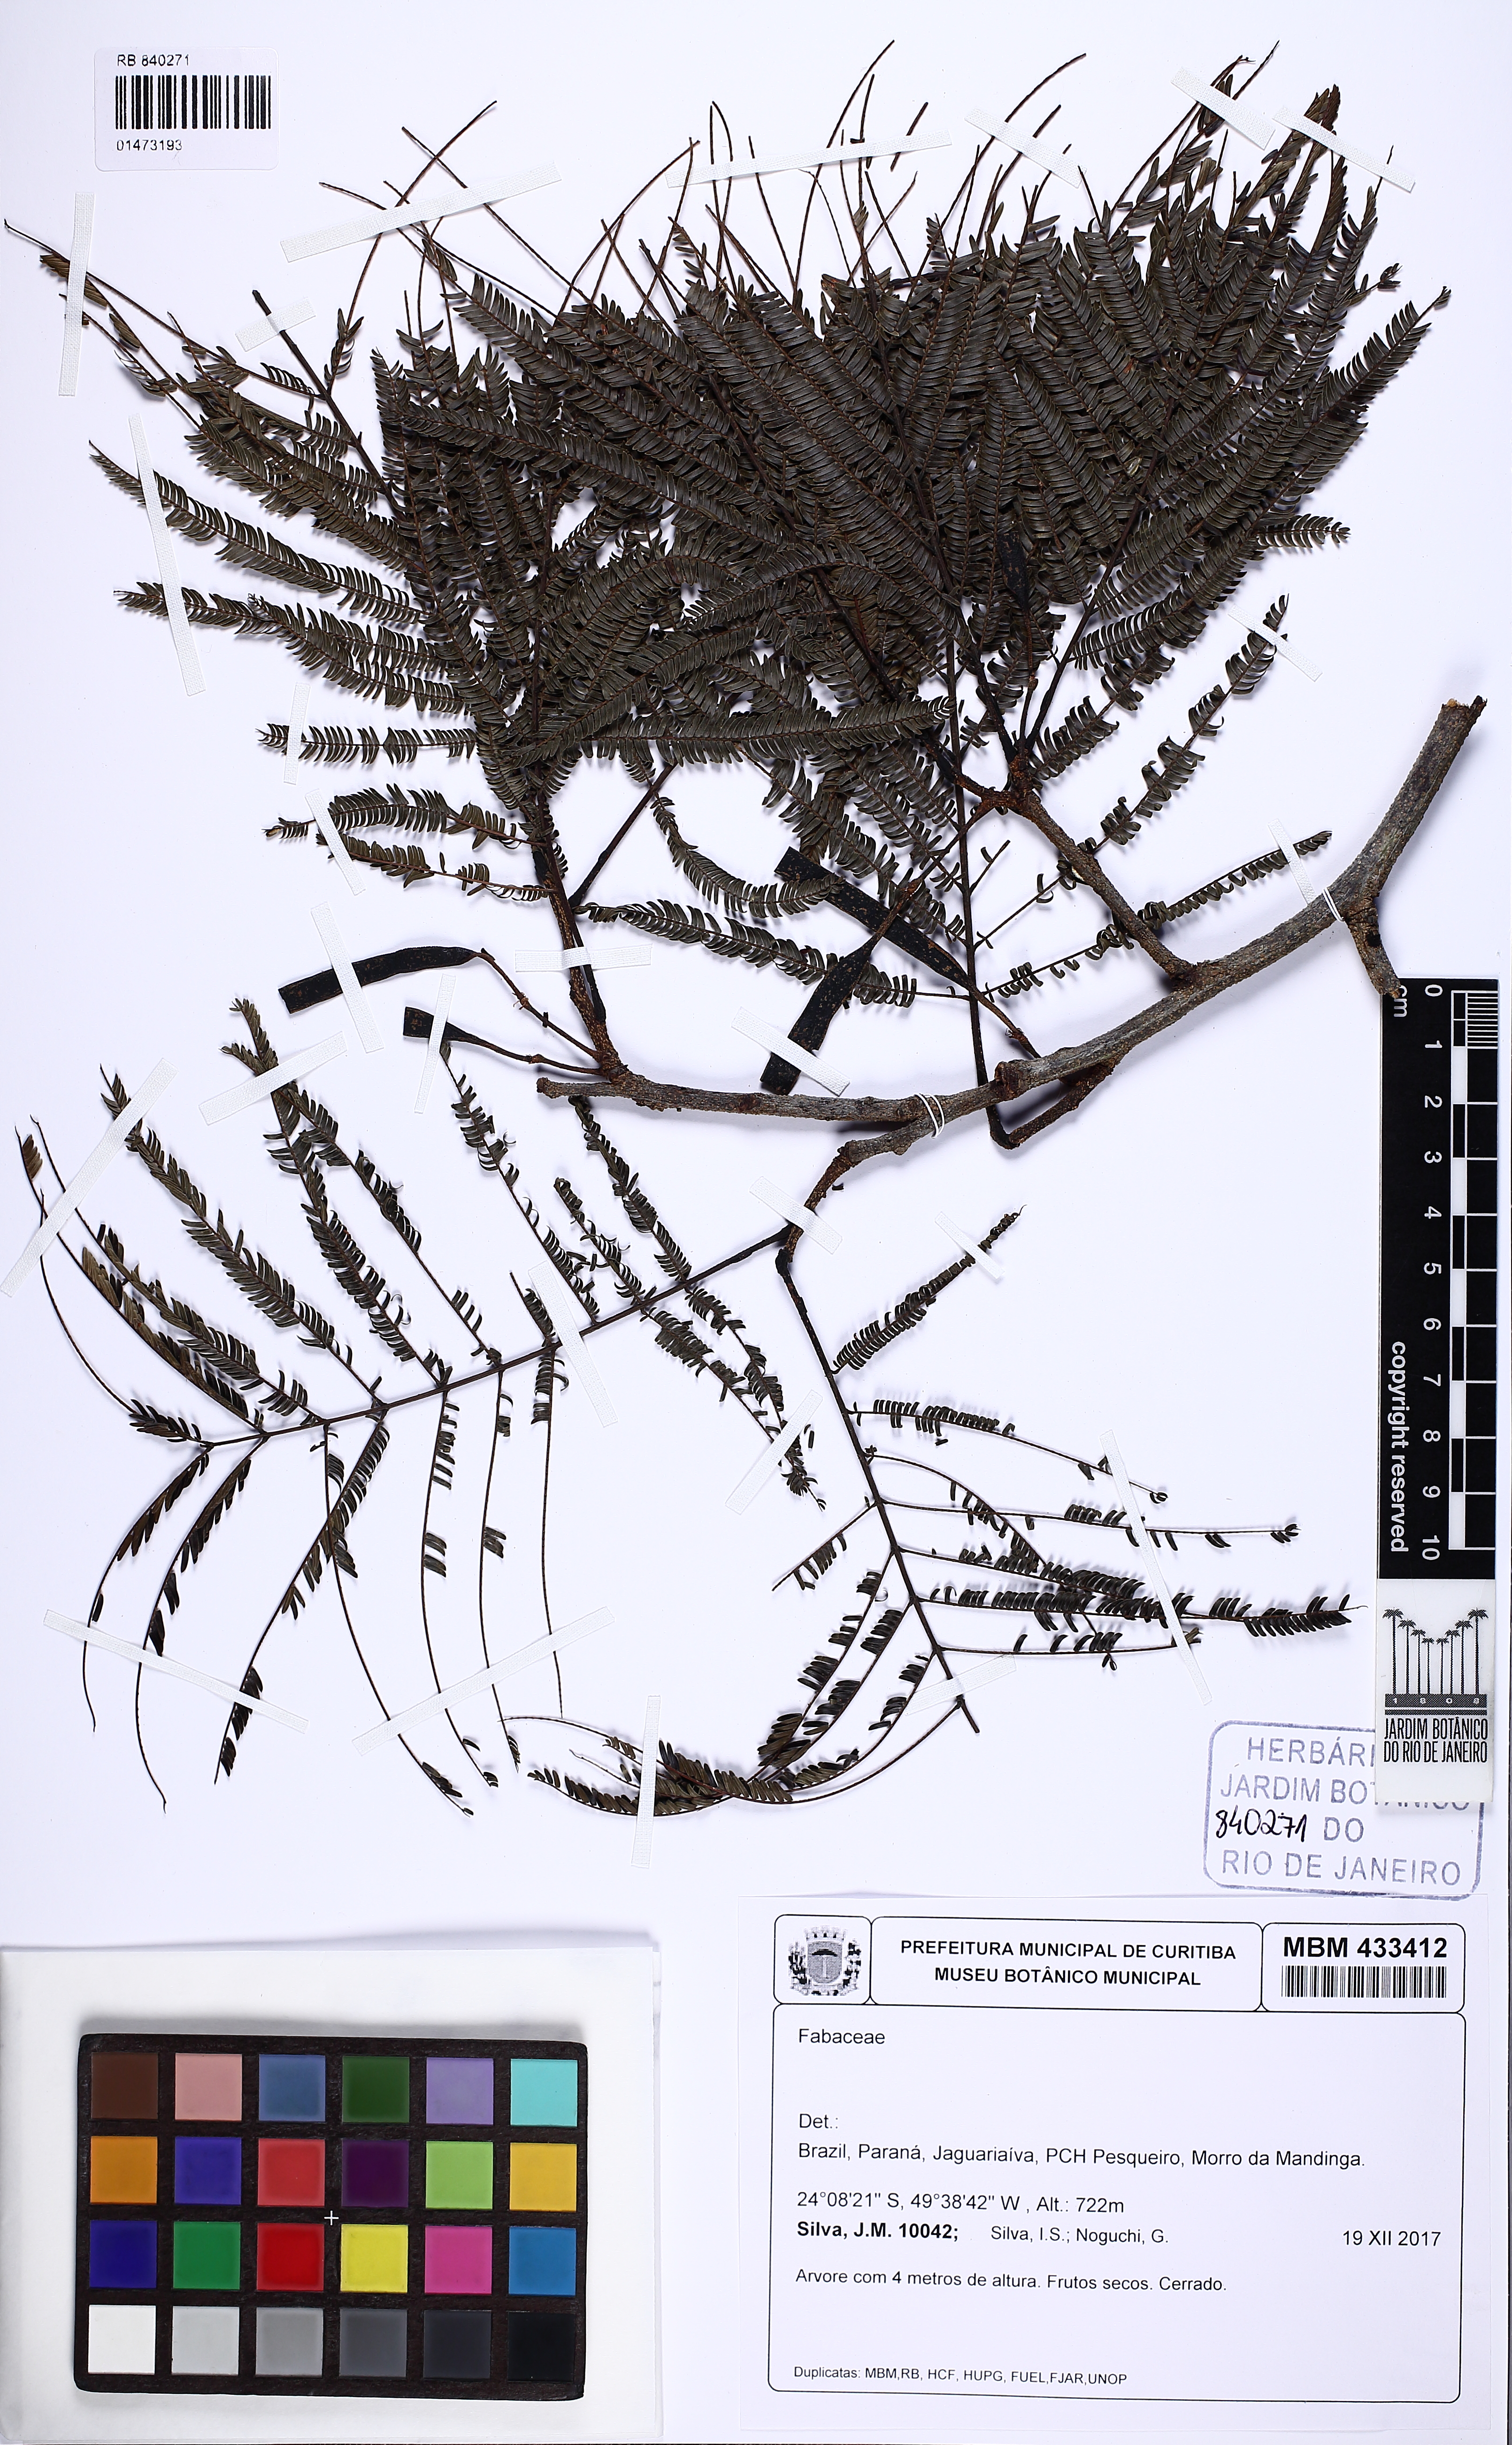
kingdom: Plantae
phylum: Tracheophyta
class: Magnoliopsida
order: Fabales
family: Fabaceae
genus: Anadenanthera
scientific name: Anadenanthera
